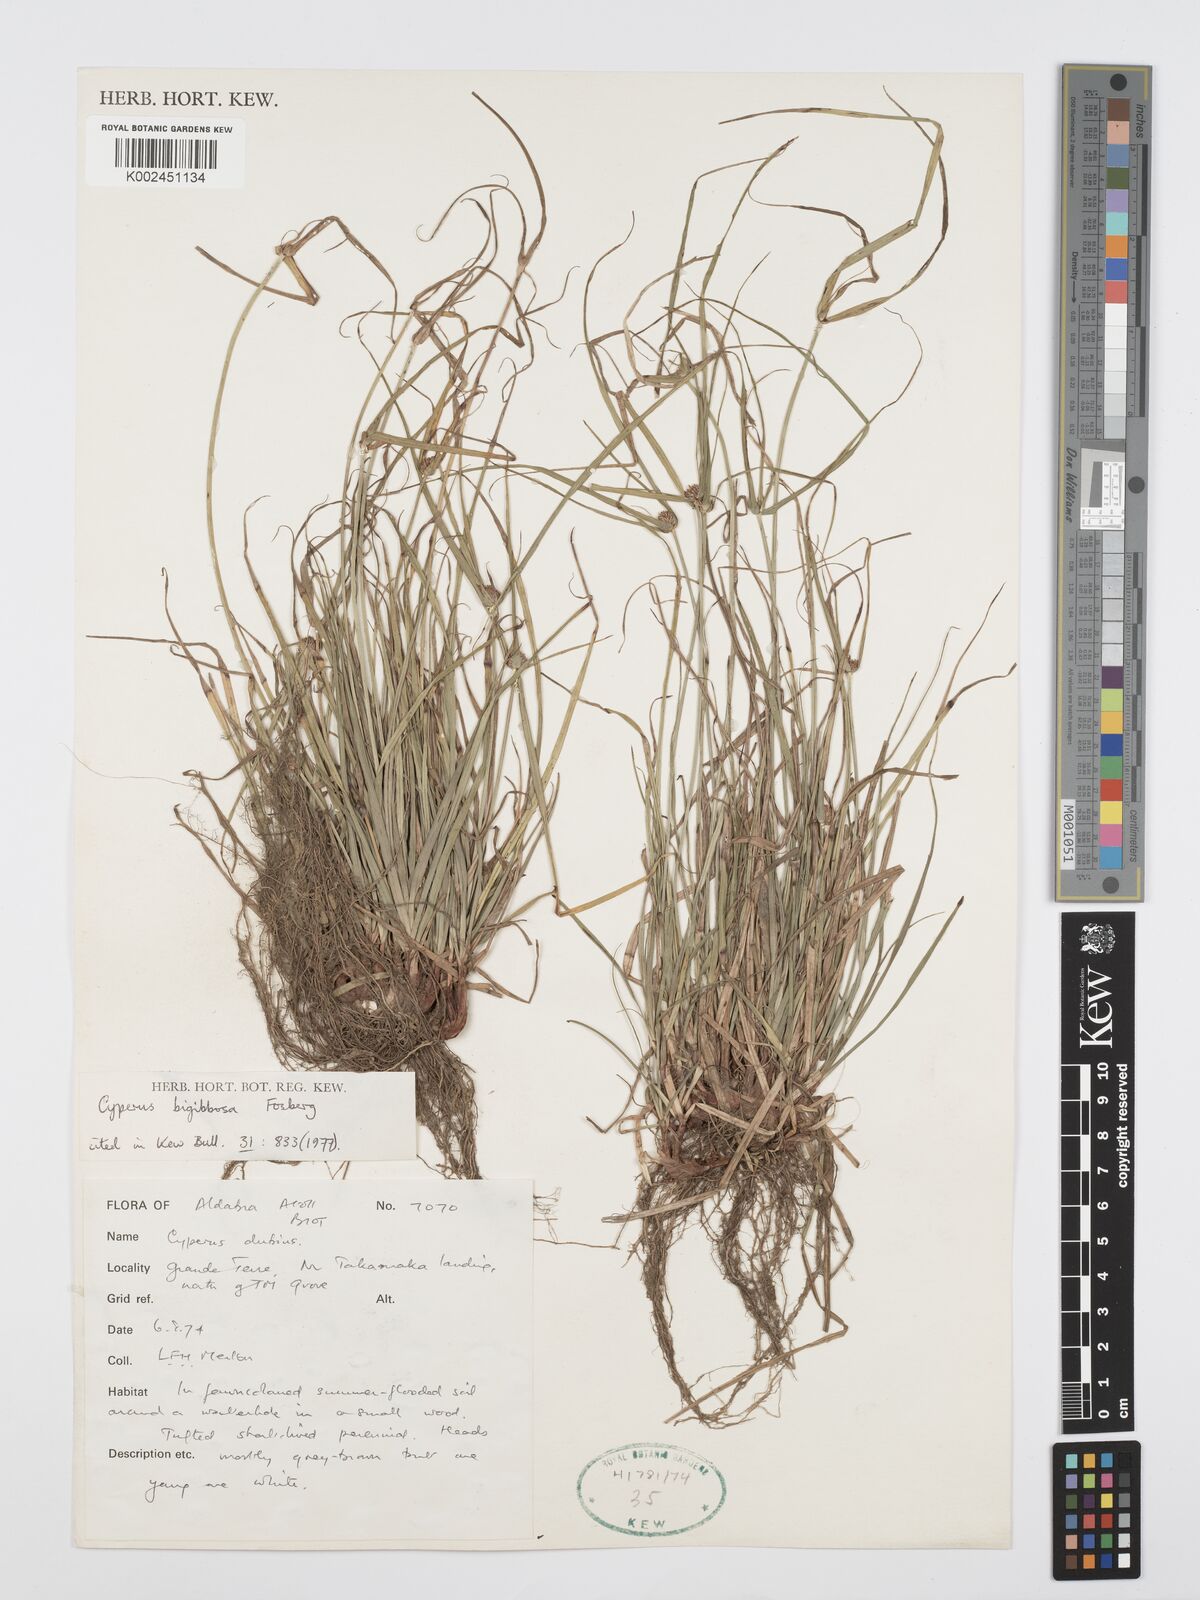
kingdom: Plantae
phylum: Tracheophyta
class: Liliopsida
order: Poales
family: Cyperaceae
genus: Cyperus
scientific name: Cyperus bigibbosa
